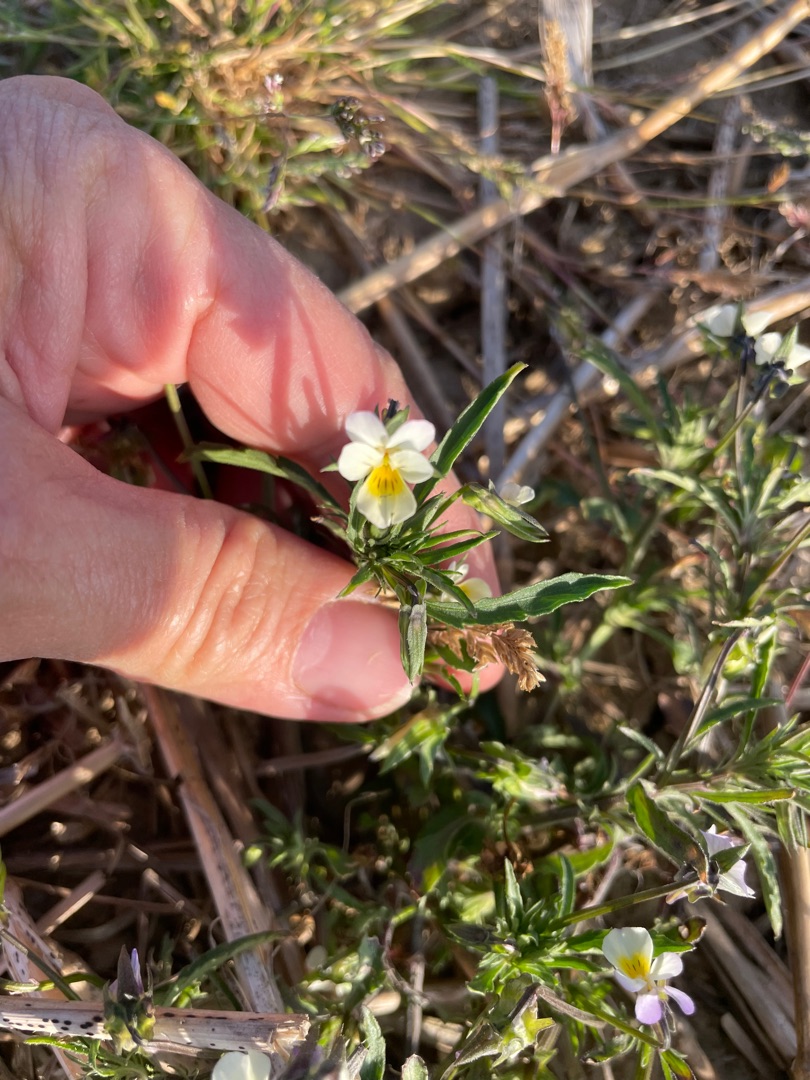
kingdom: Plantae
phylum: Tracheophyta
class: Magnoliopsida
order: Malpighiales
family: Violaceae
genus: Viola
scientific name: Viola arvensis
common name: Ager-stedmoderblomst
